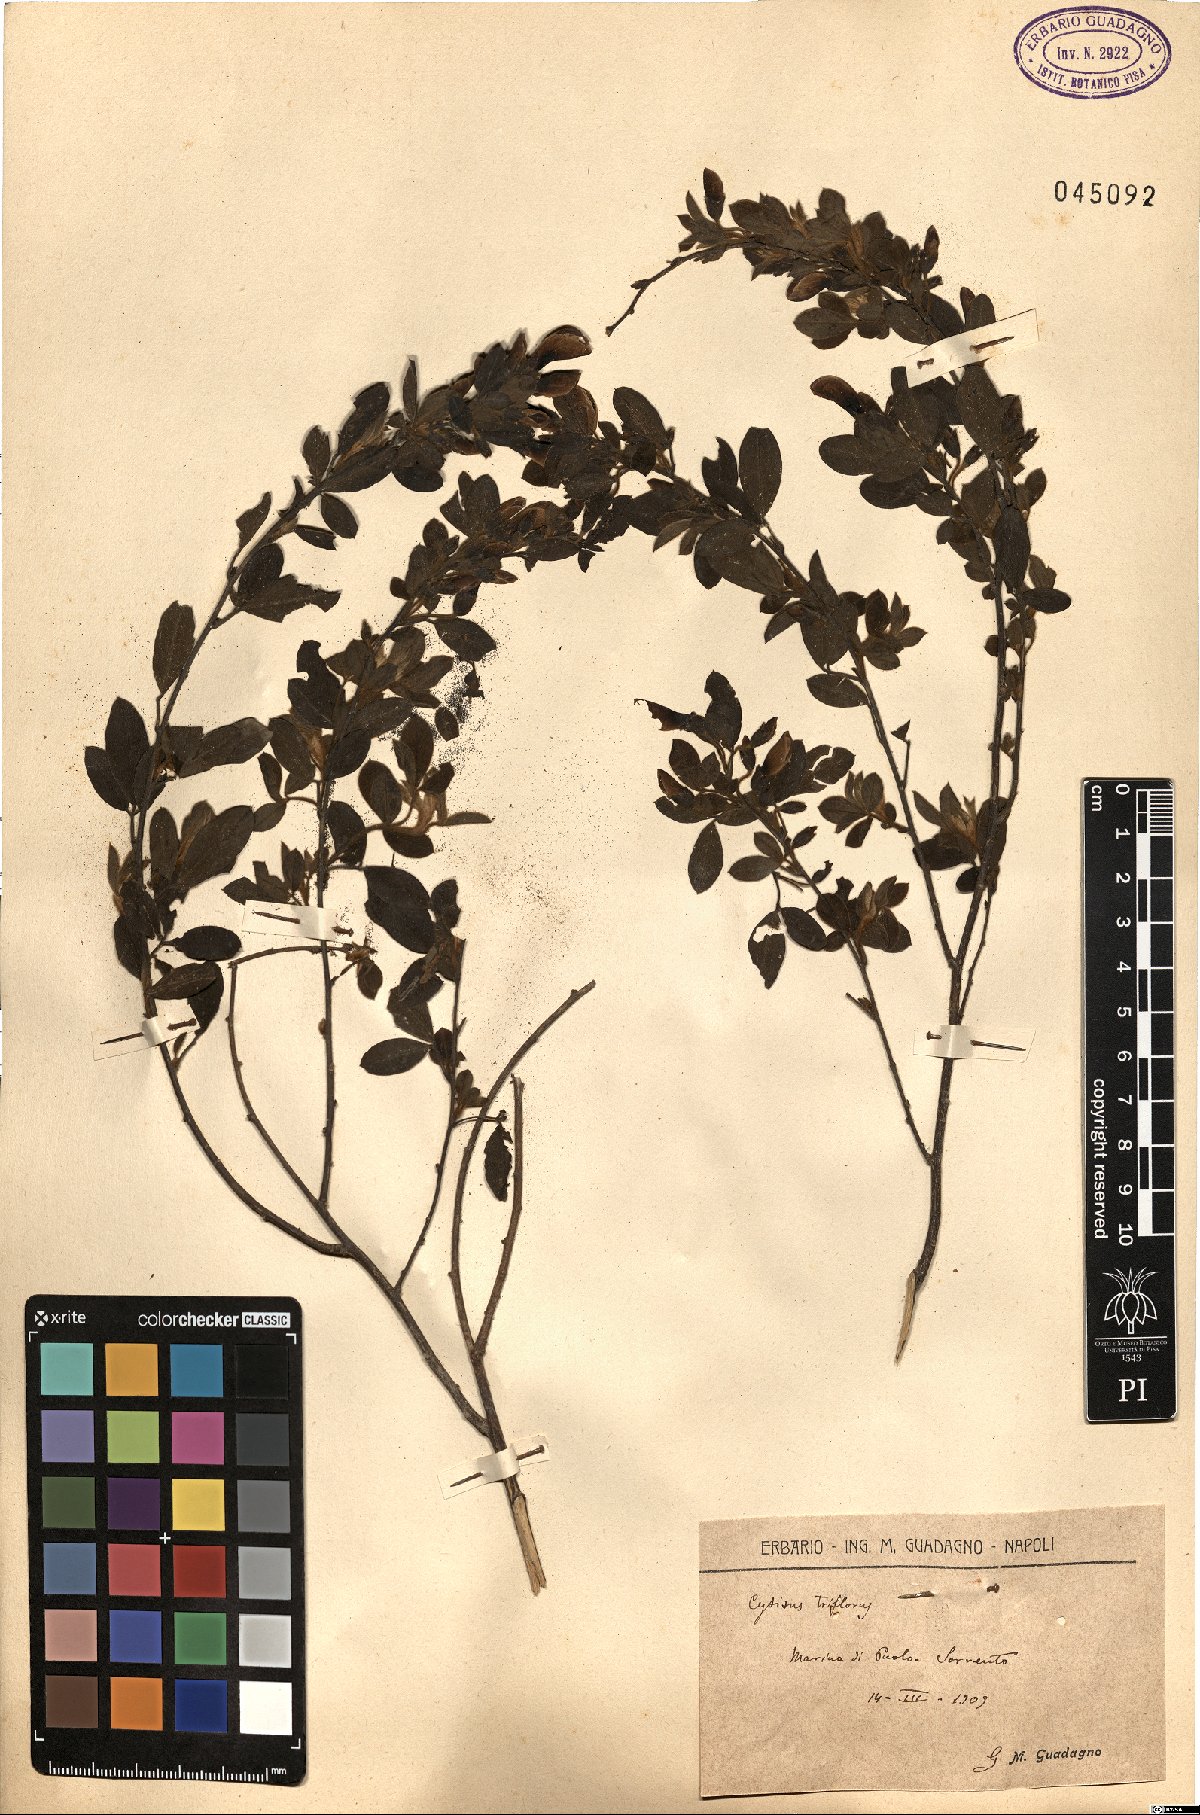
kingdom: Plantae
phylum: Tracheophyta
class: Magnoliopsida
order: Fabales
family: Fabaceae
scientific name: Fabaceae
